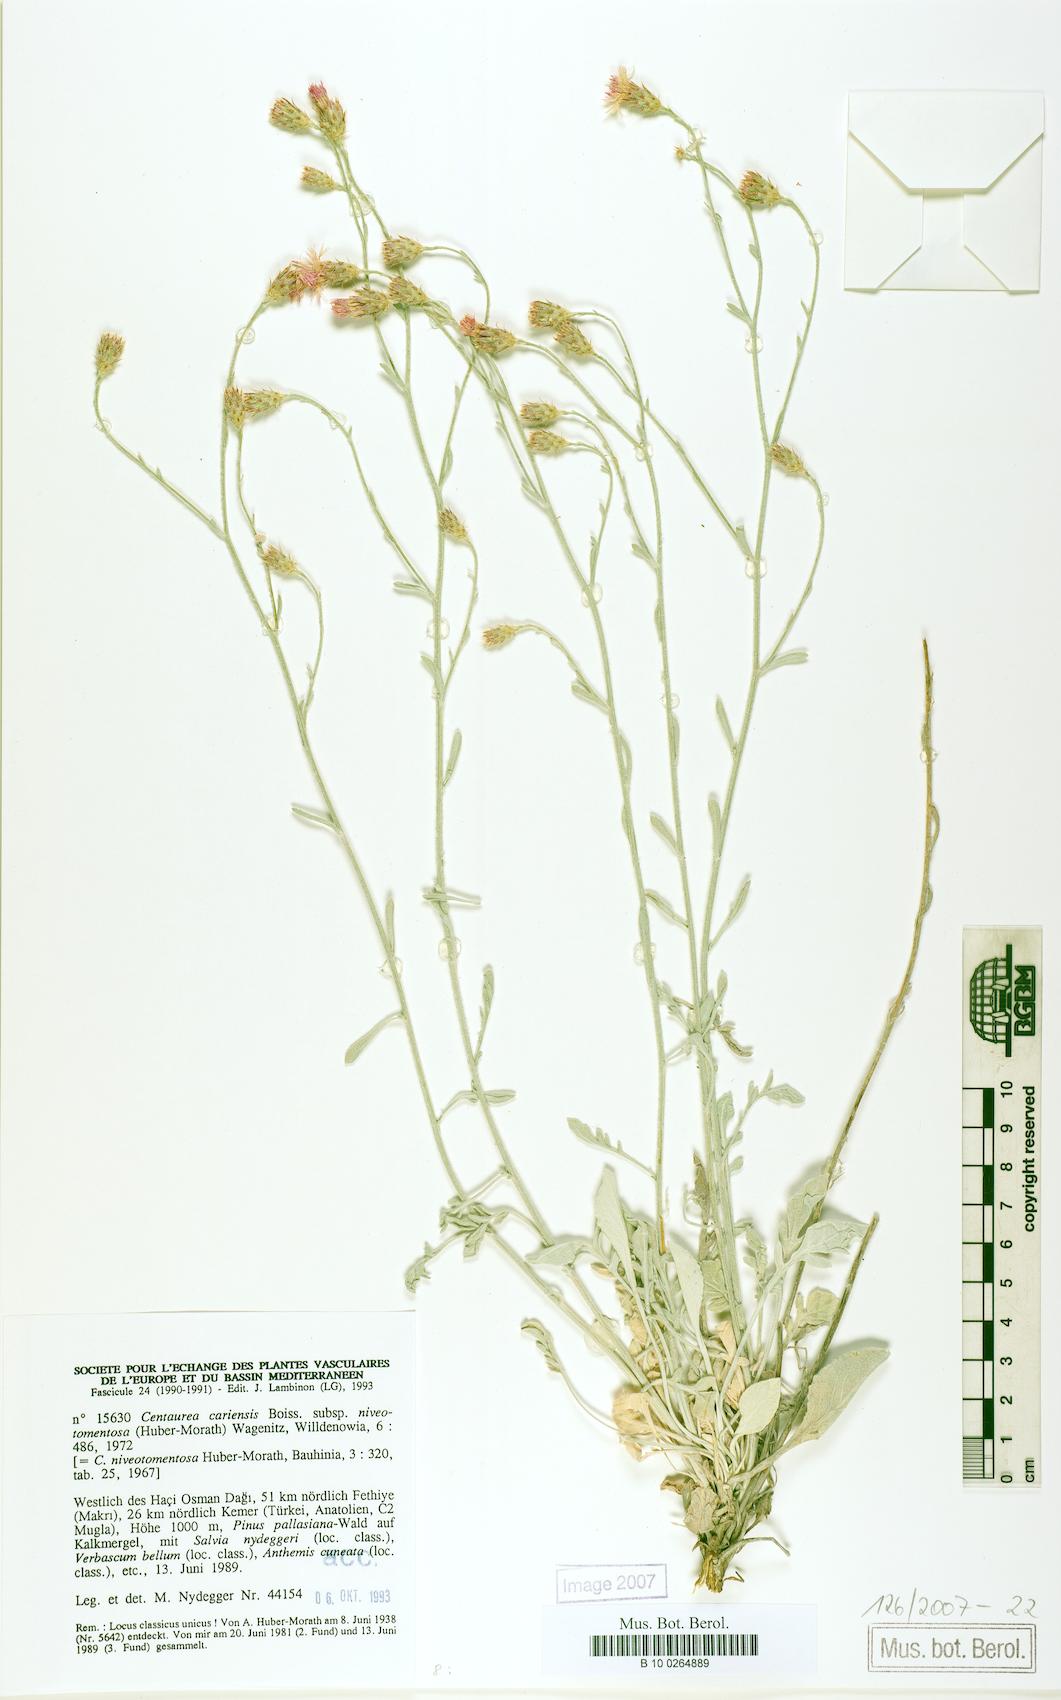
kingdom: Plantae
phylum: Tracheophyta
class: Magnoliopsida
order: Asterales
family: Asteraceae
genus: Centaurea
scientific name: Centaurea cariensis
